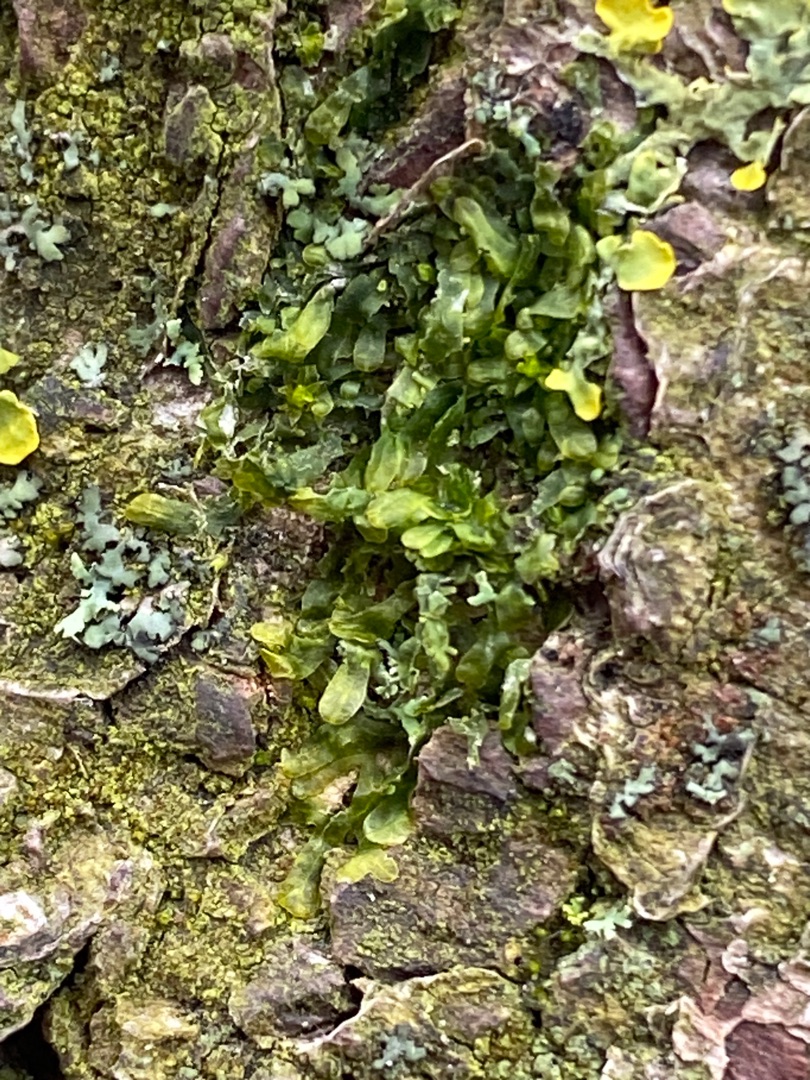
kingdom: Plantae
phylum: Marchantiophyta
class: Jungermanniopsida
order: Metzgeriales
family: Metzgeriaceae
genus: Metzgeria
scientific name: Metzgeria furcata
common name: Almindelig gaffelløv
